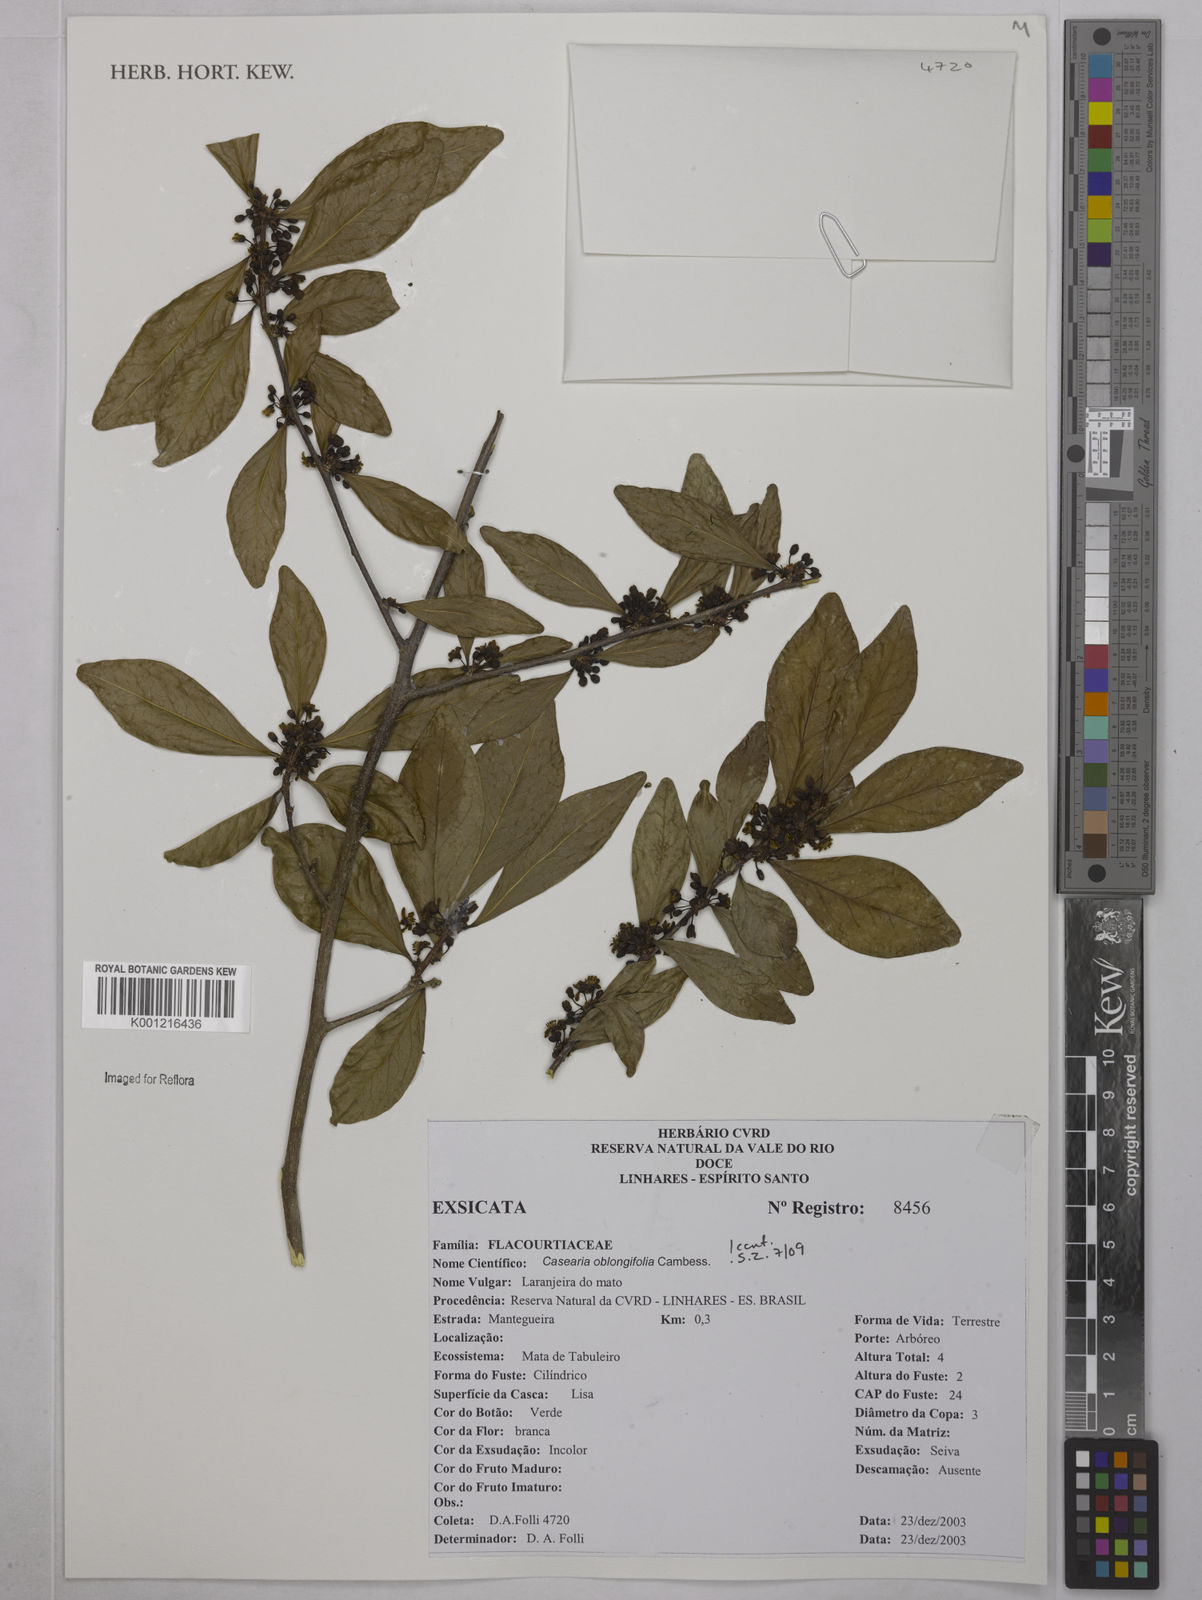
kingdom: Plantae
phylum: Tracheophyta
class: Magnoliopsida
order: Malpighiales
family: Salicaceae
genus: Casearia
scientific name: Casearia oblongifolia
